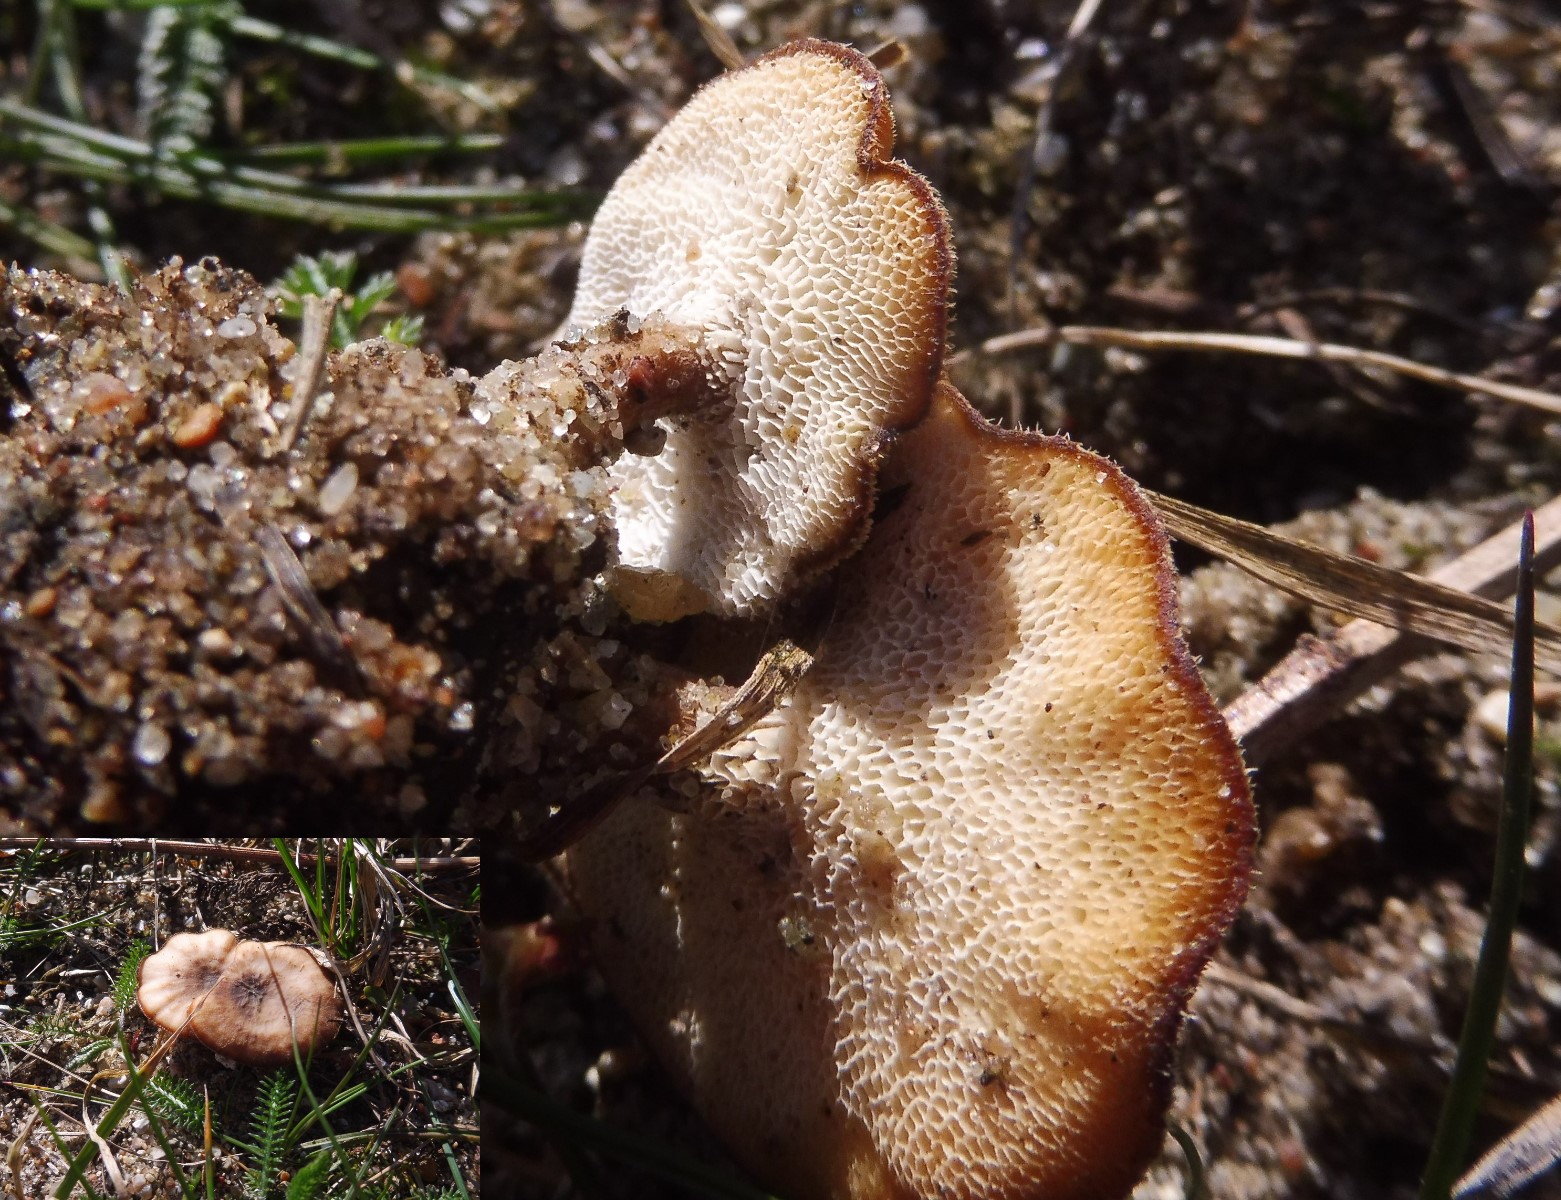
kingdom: Fungi
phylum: Basidiomycota
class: Agaricomycetes
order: Polyporales
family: Polyporaceae
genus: Lentinus
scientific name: Lentinus brumalis
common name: vinter-stilkporesvamp
